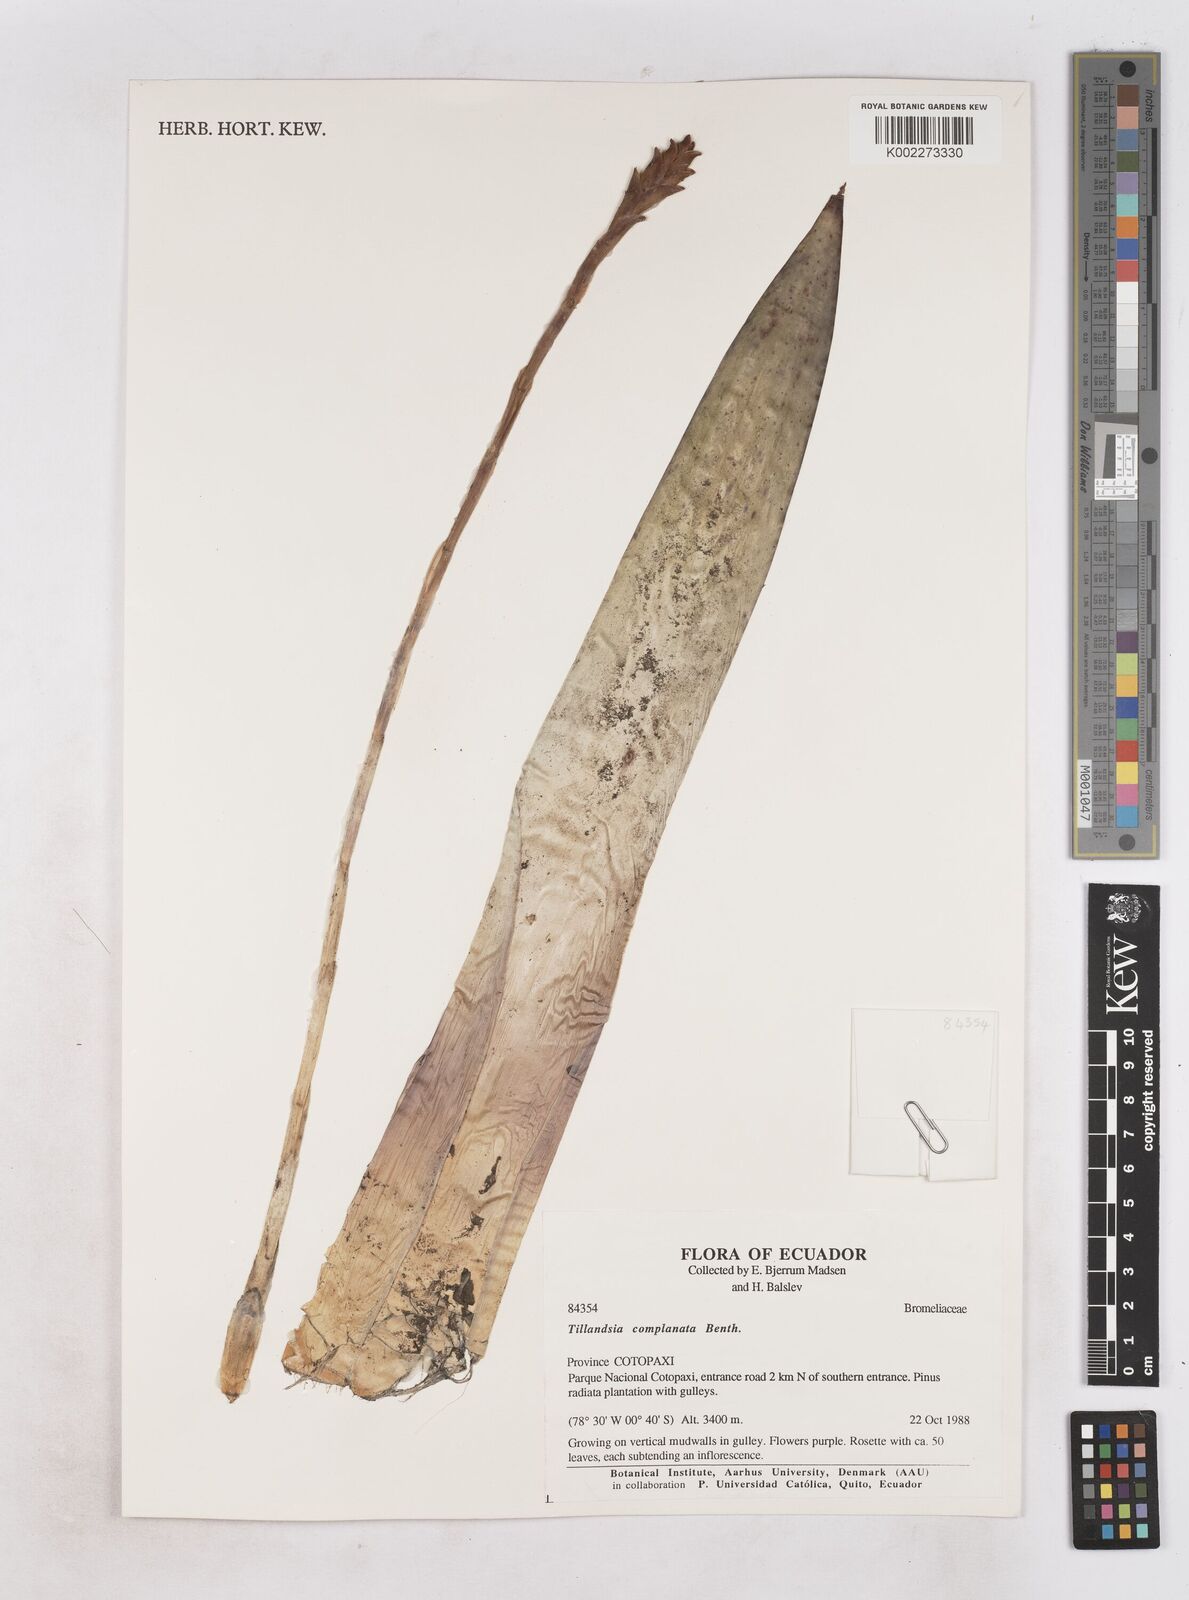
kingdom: Plantae
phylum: Tracheophyta
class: Liliopsida
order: Poales
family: Bromeliaceae
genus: Tillandsia
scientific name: Tillandsia complanata
